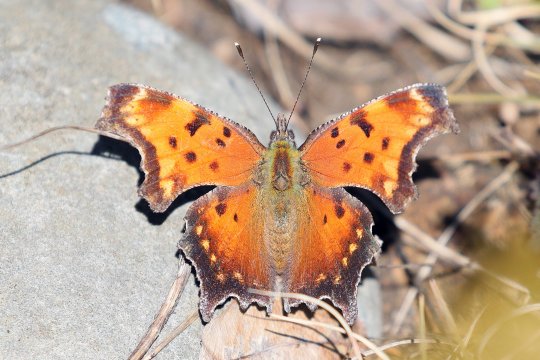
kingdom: Animalia
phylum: Arthropoda
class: Insecta
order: Lepidoptera
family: Nymphalidae
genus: Polygonia
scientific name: Polygonia progne
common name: Gray Comma
